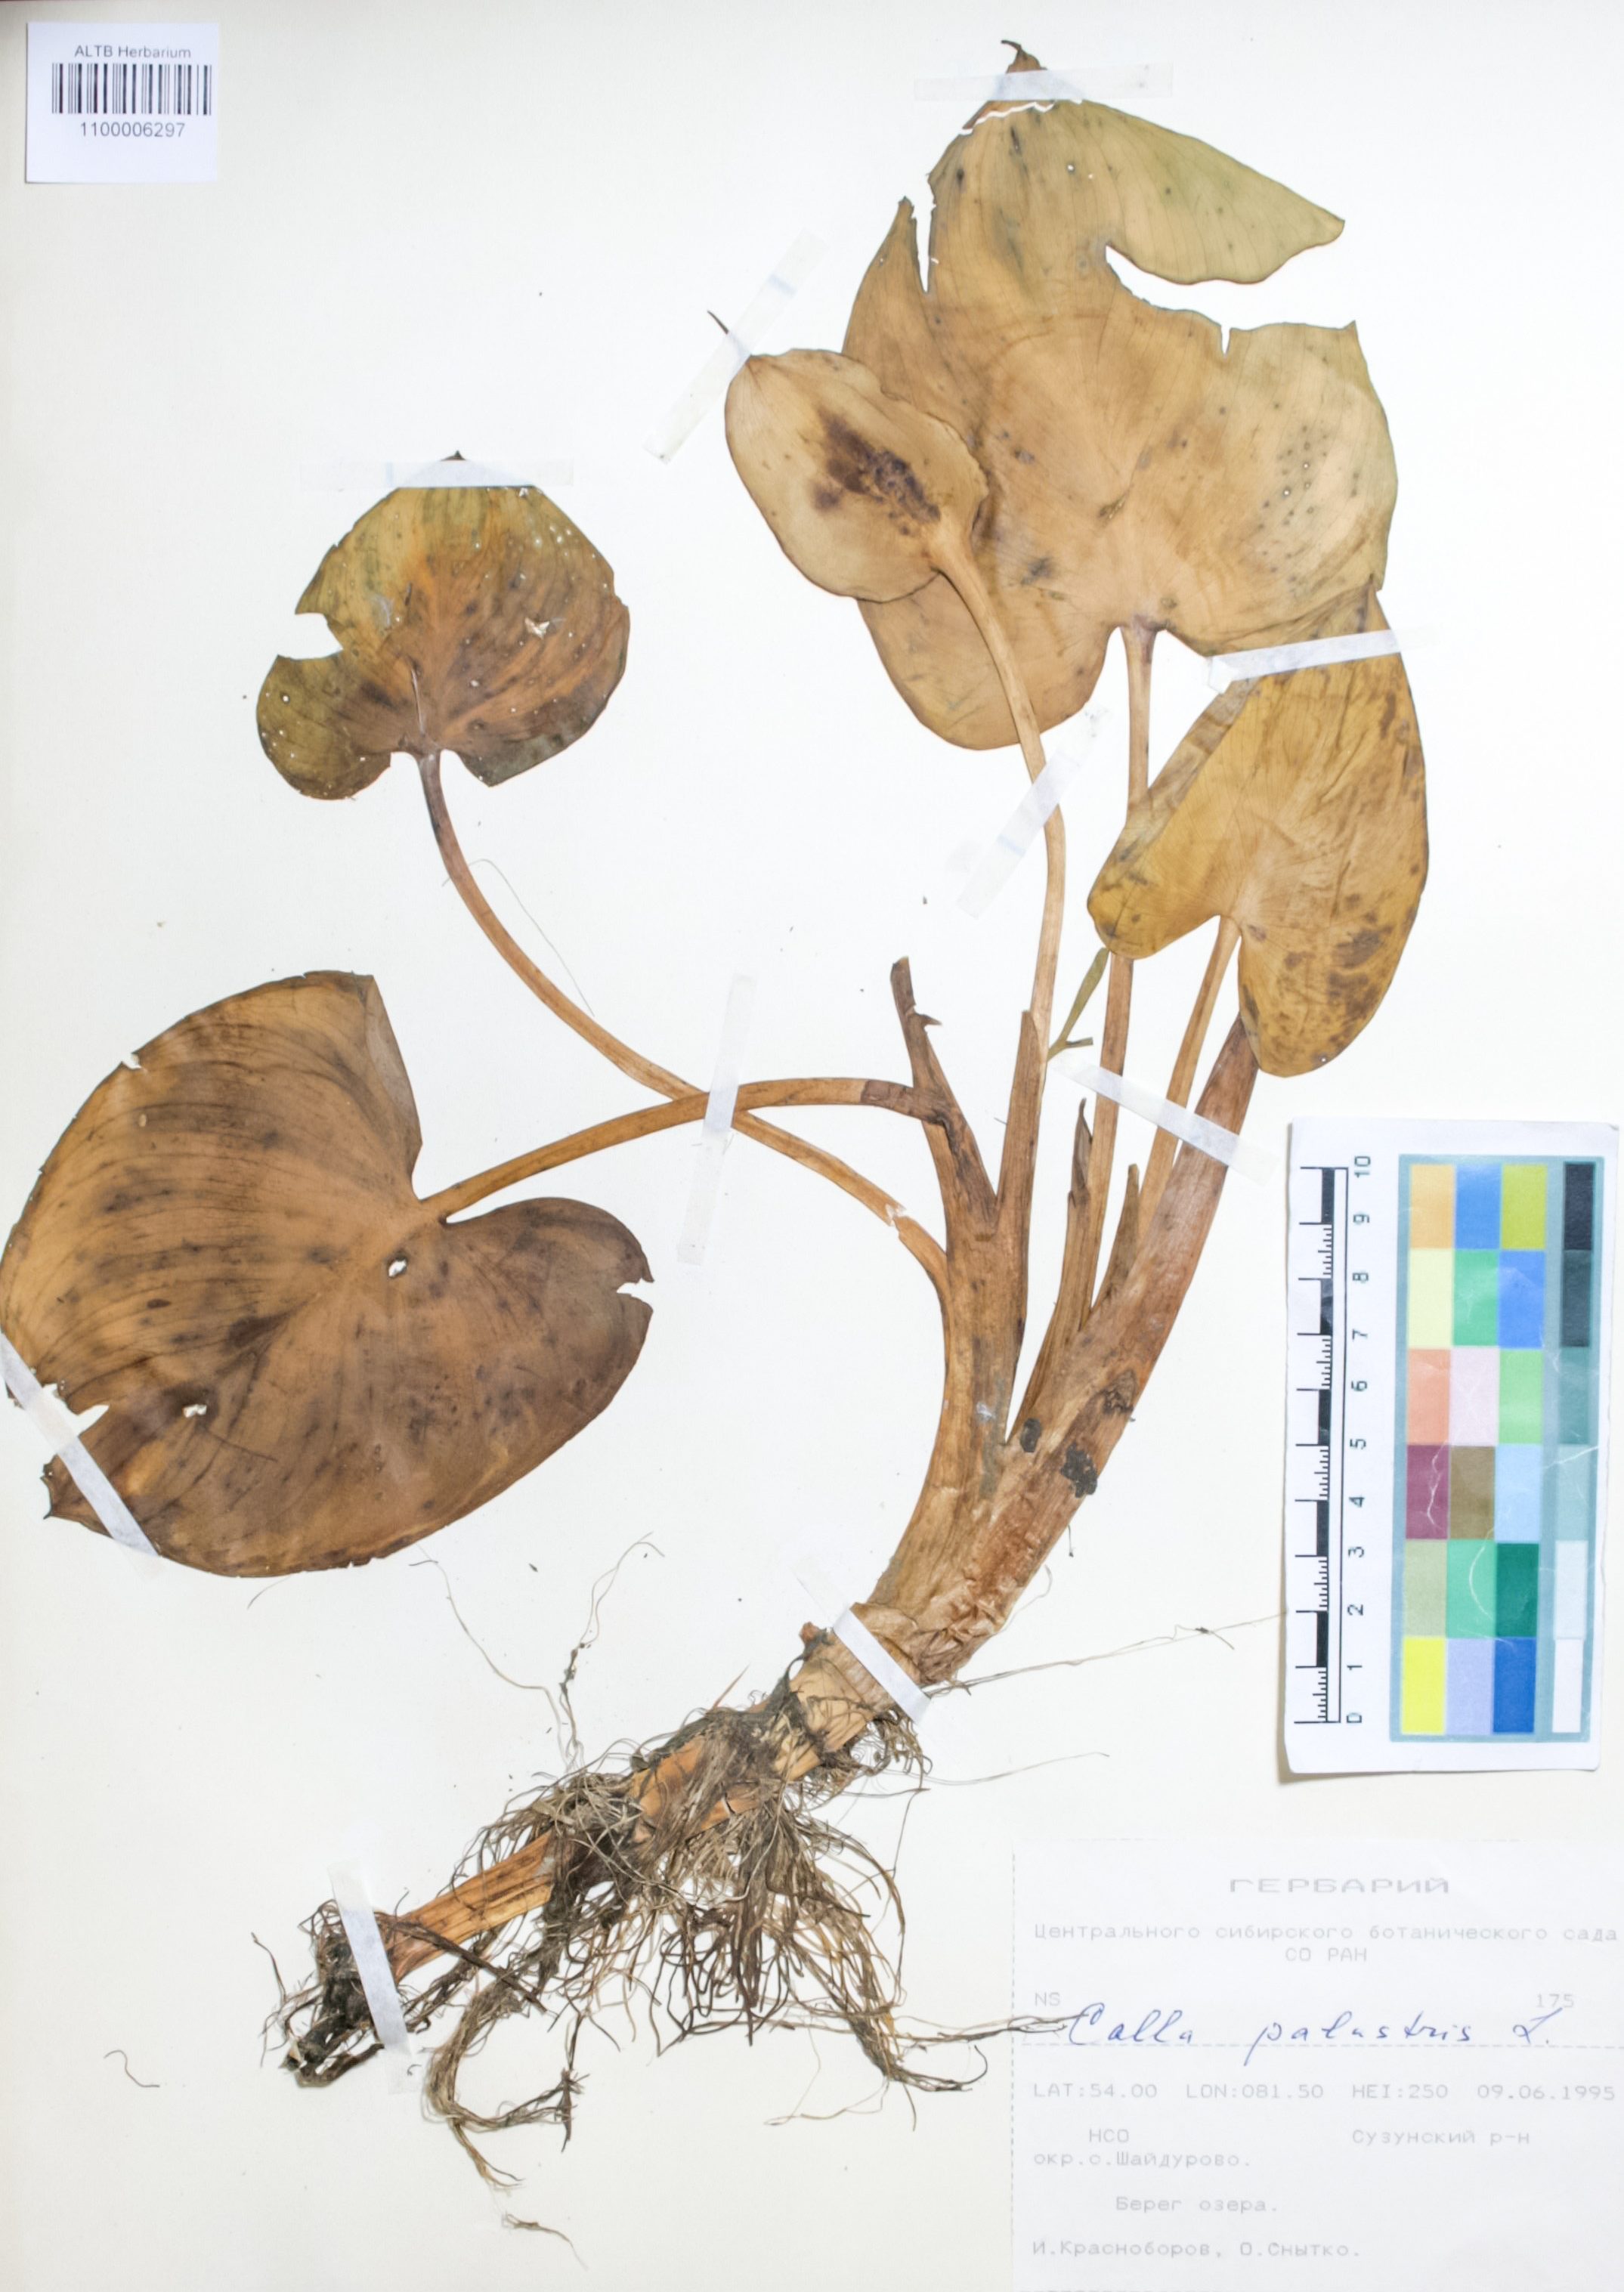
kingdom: Plantae
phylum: Tracheophyta
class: Liliopsida
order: Alismatales
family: Araceae
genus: Calla
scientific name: Calla palustris
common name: Bog arum
